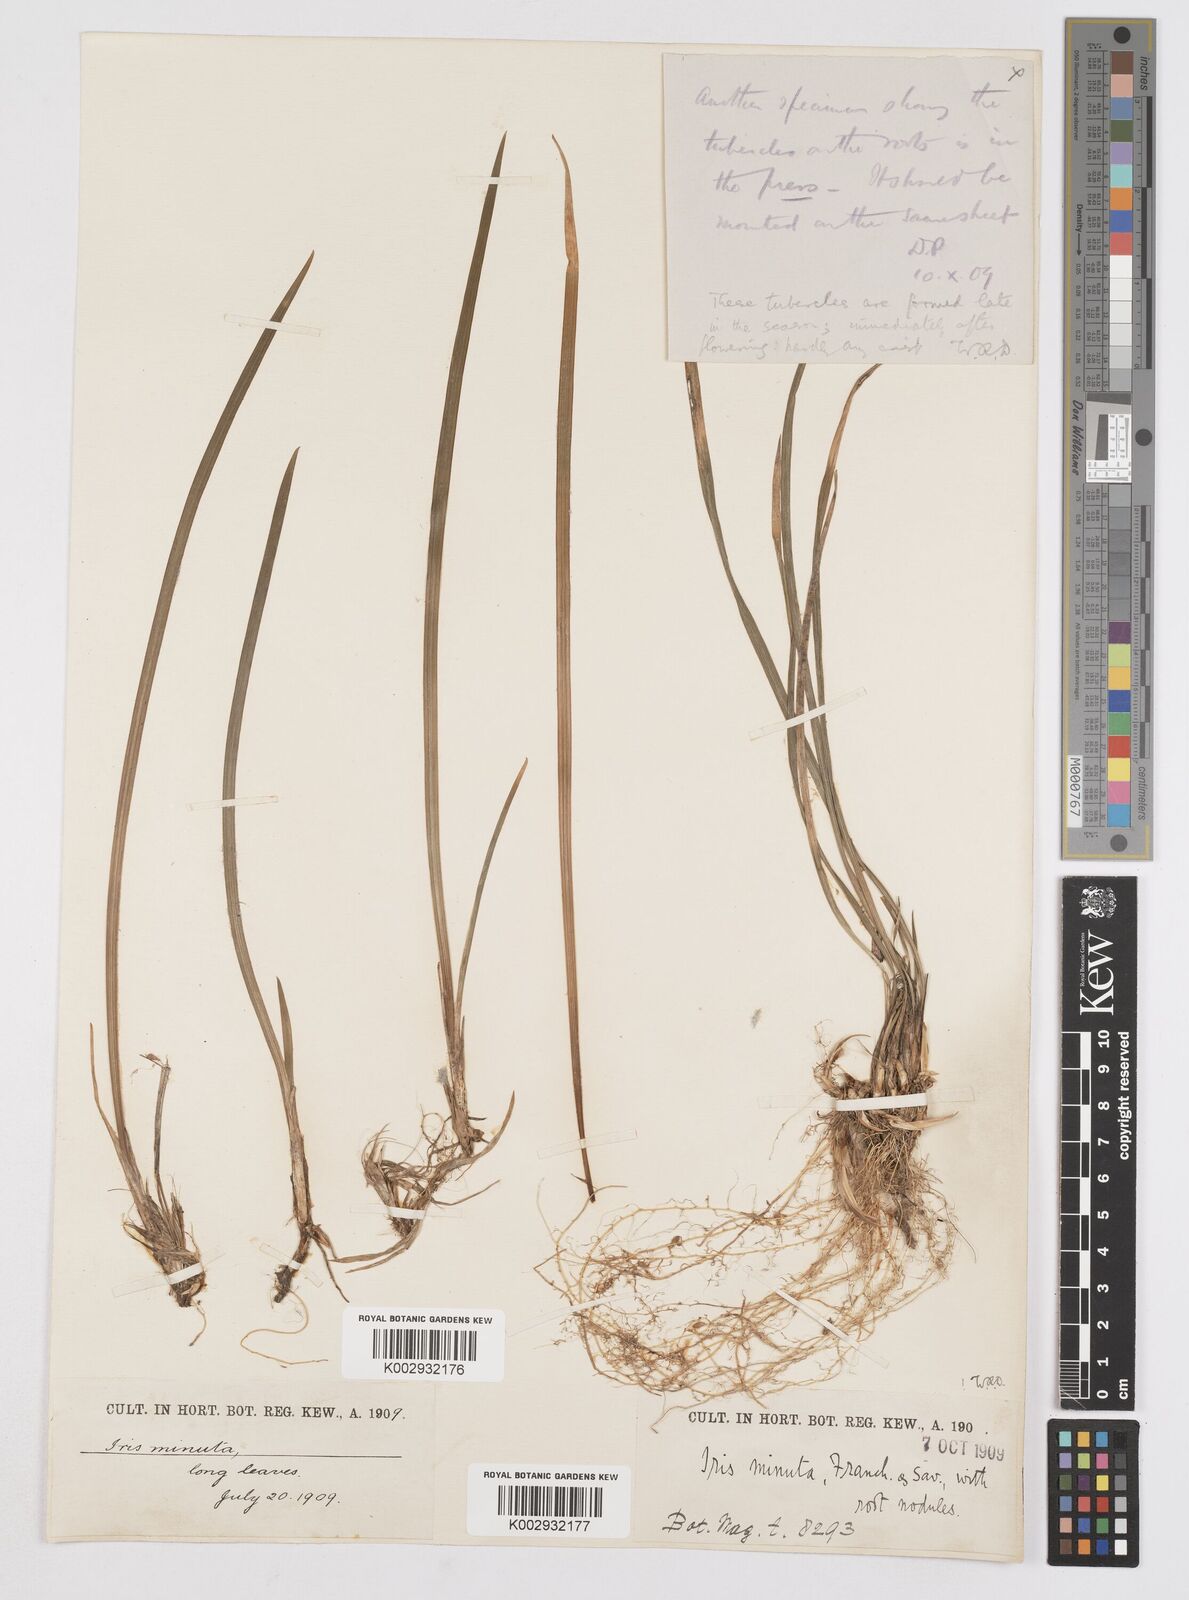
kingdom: Plantae
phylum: Tracheophyta
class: Liliopsida
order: Asparagales
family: Iridaceae
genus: Iris
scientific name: Iris minutoaurea
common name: Small yellow-flower iris
